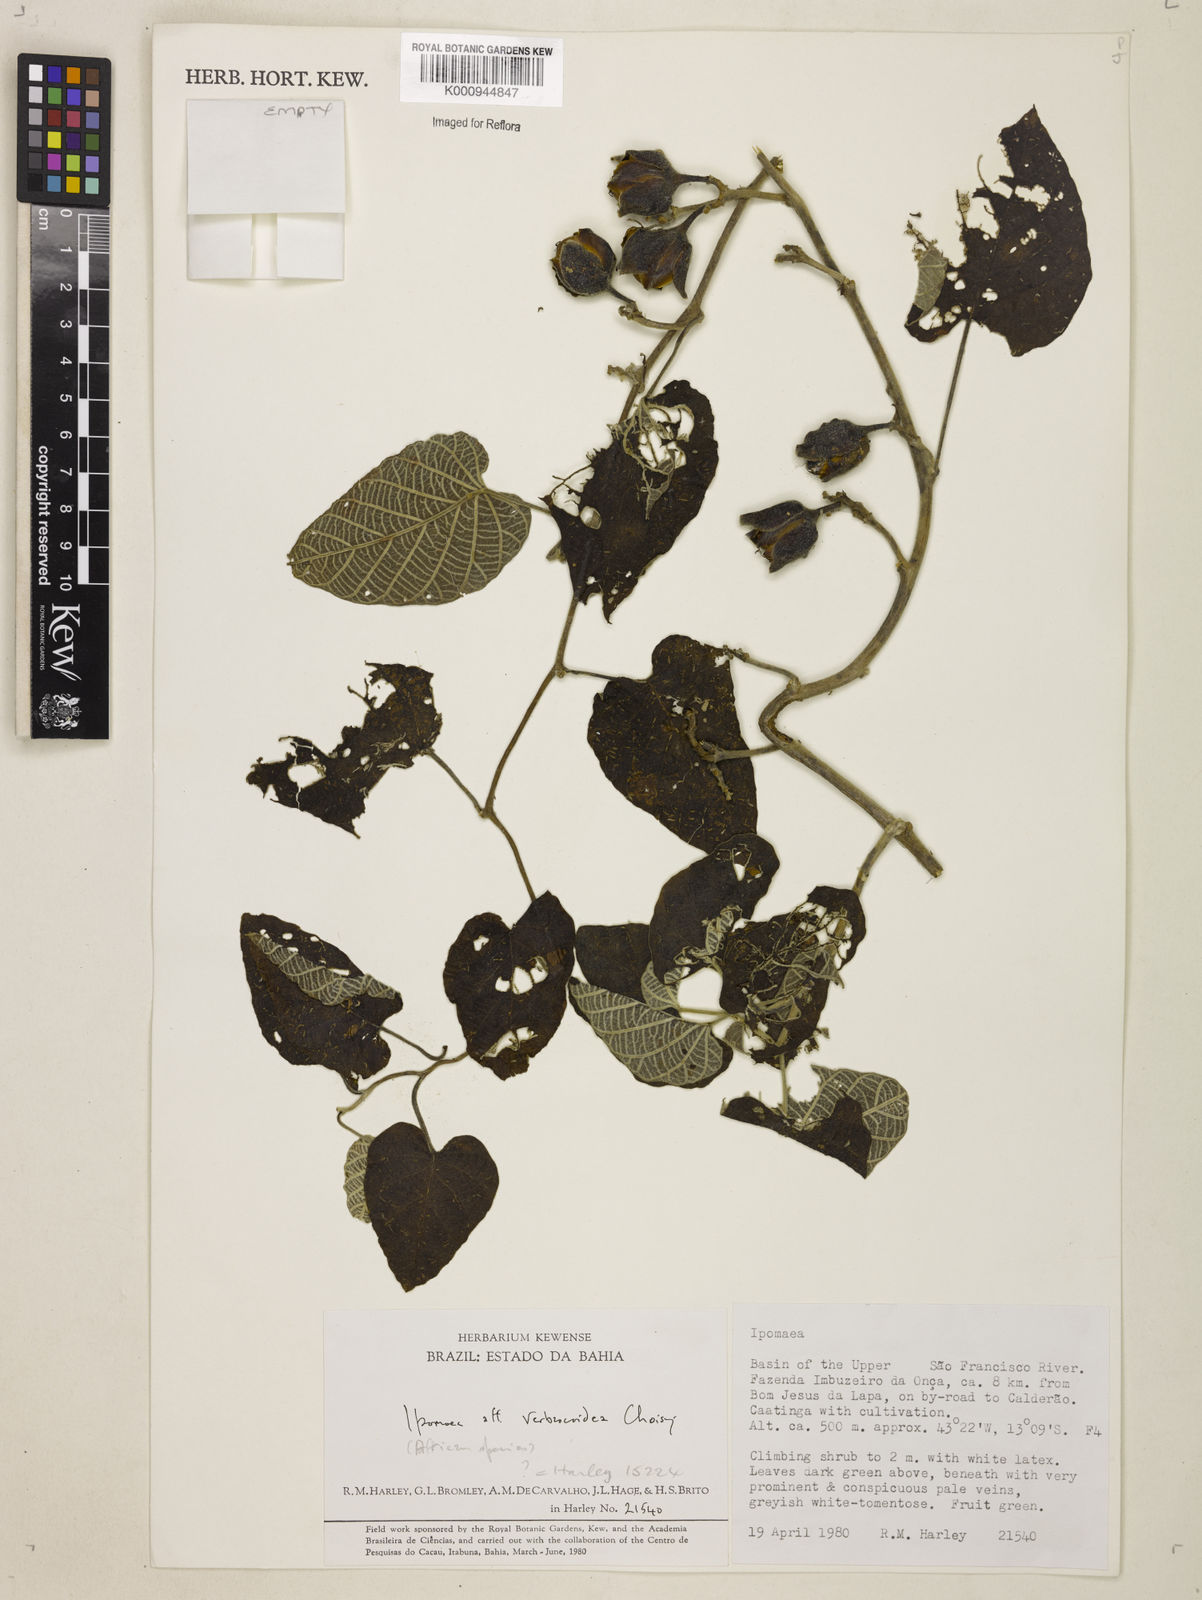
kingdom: Plantae
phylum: Tracheophyta
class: Magnoliopsida
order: Solanales
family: Convolvulaceae
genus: Ipomoea
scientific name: Ipomoea brasiliana
